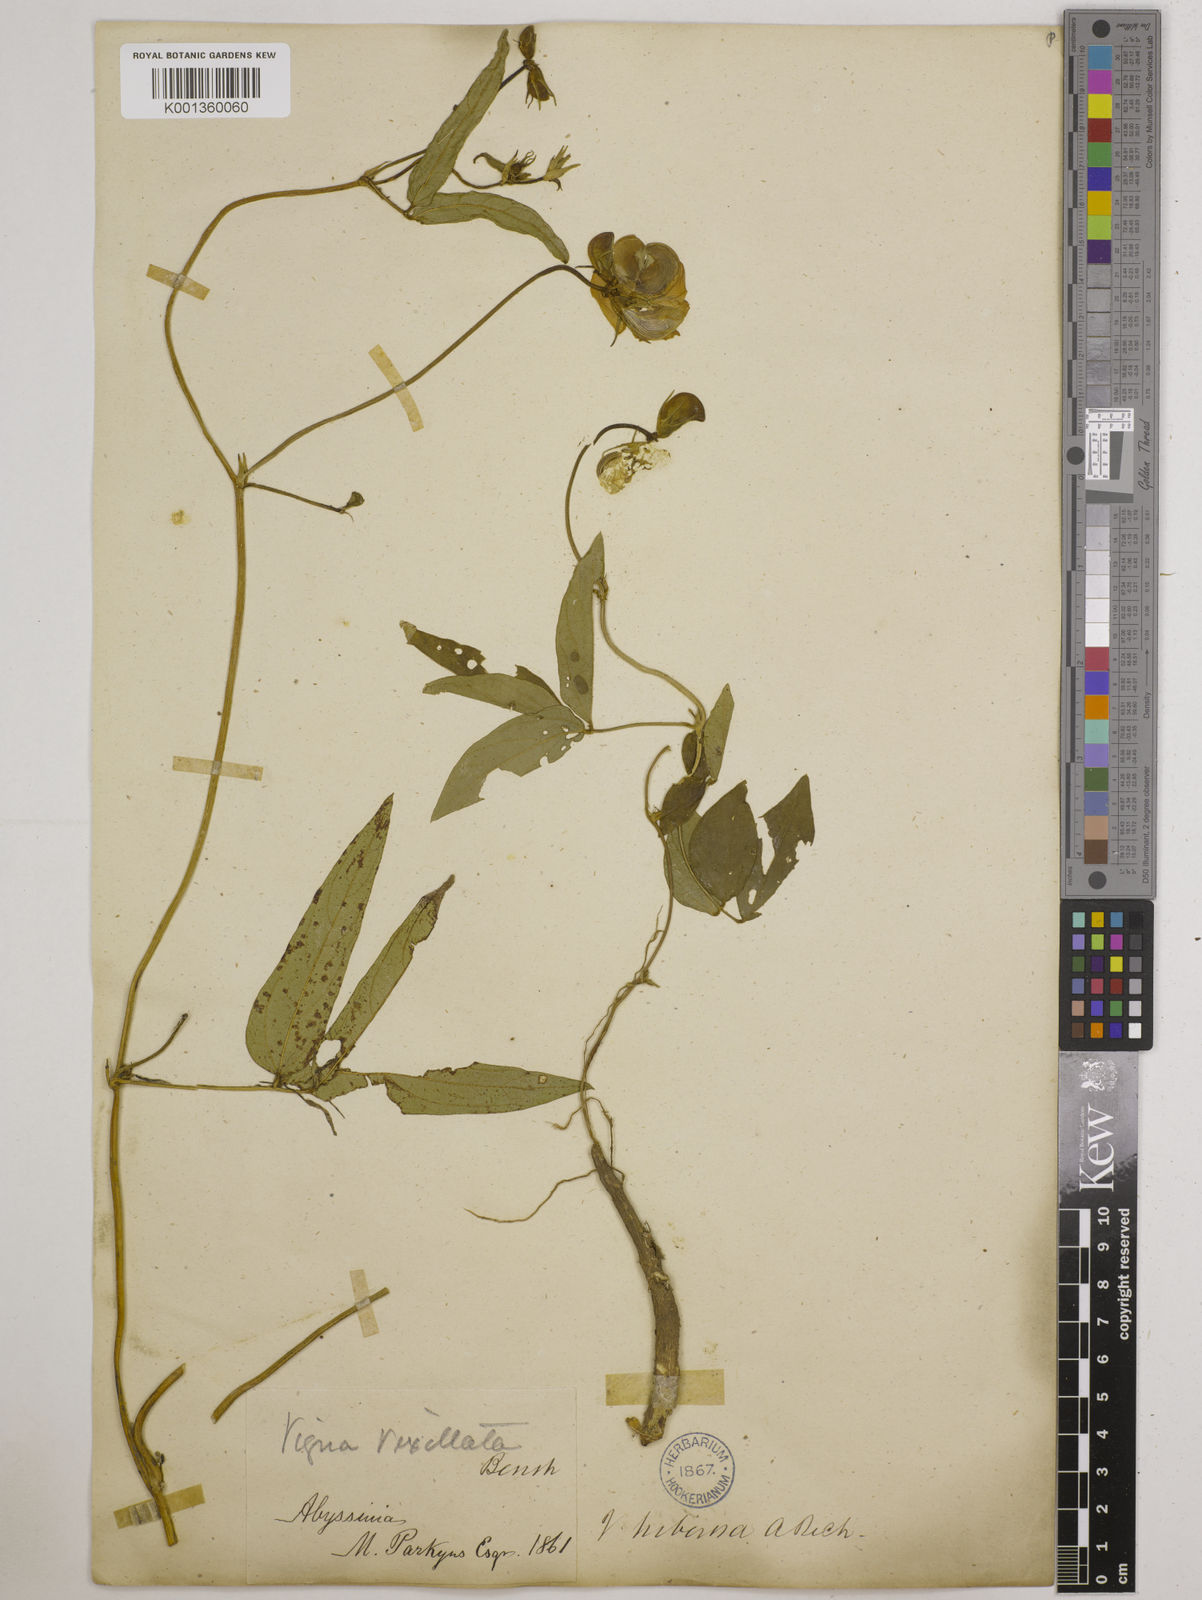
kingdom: Plantae
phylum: Tracheophyta
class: Magnoliopsida
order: Fabales
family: Fabaceae
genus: Vigna
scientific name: Vigna vexillata
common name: Zombi pea
